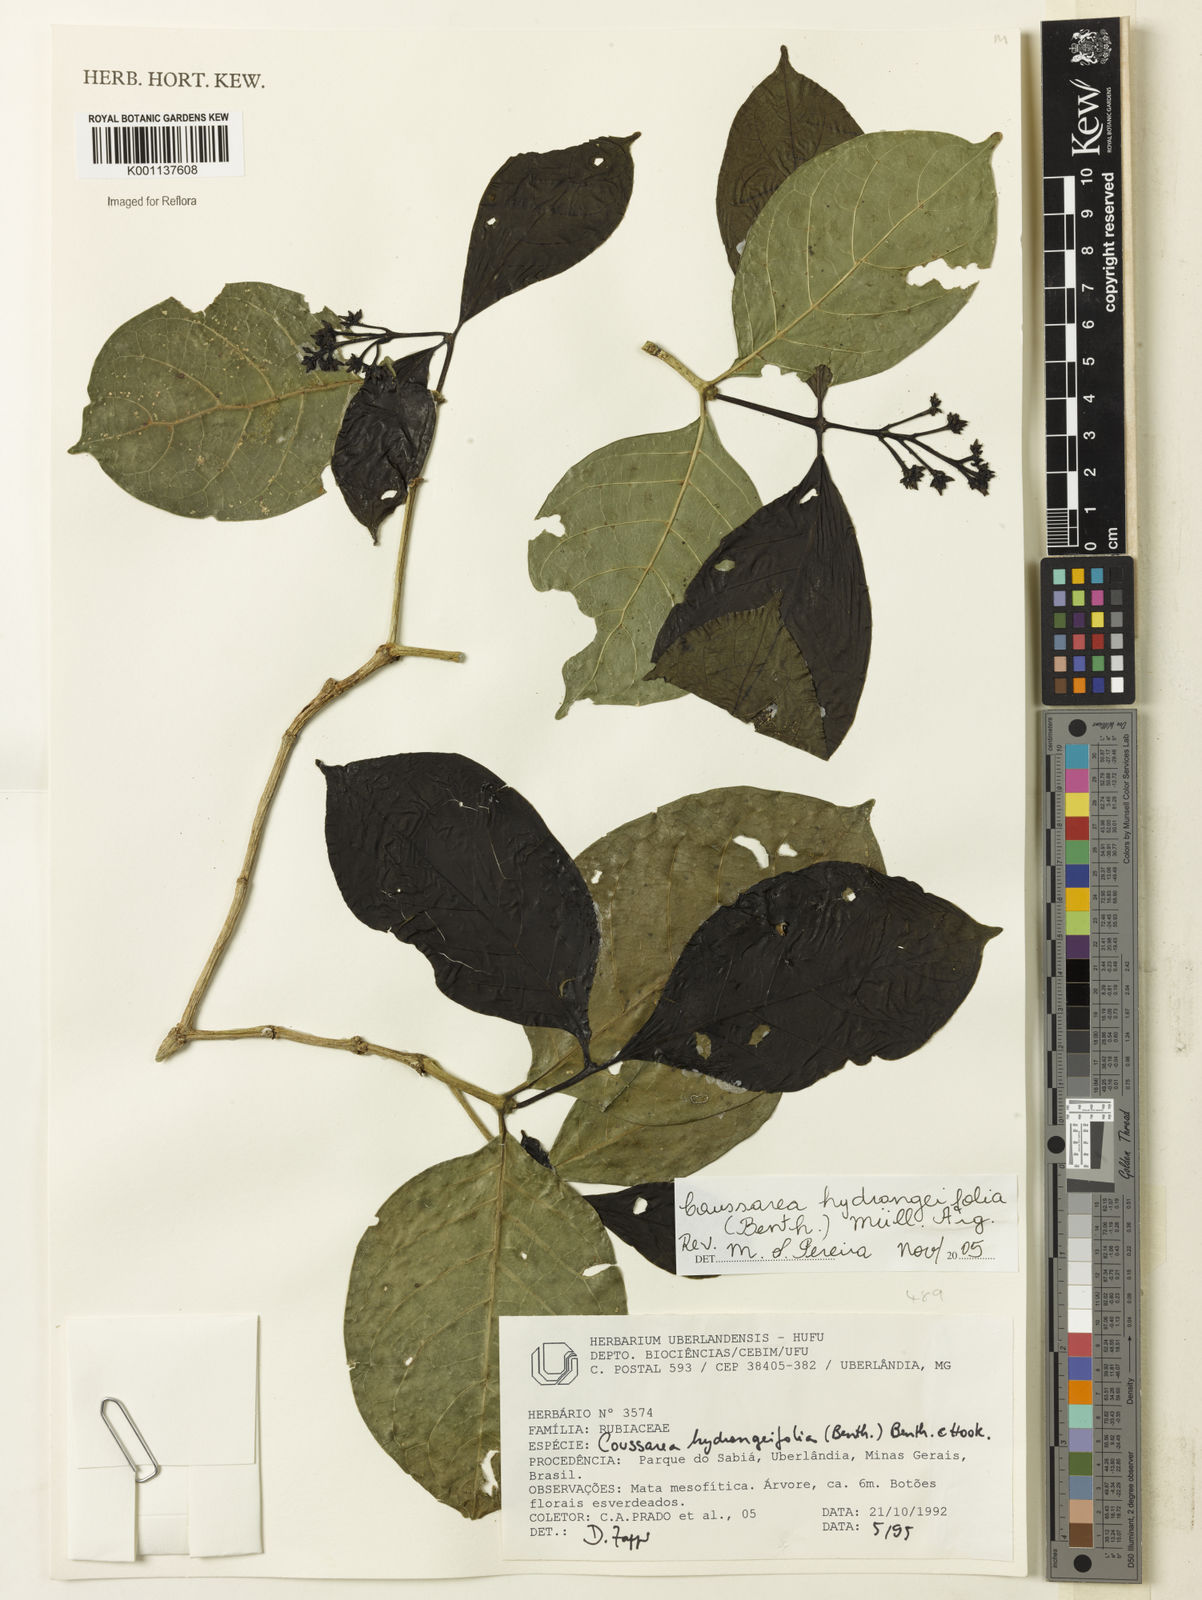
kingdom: Plantae
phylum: Tracheophyta
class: Magnoliopsida
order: Gentianales
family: Rubiaceae
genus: Coussarea
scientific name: Coussarea
